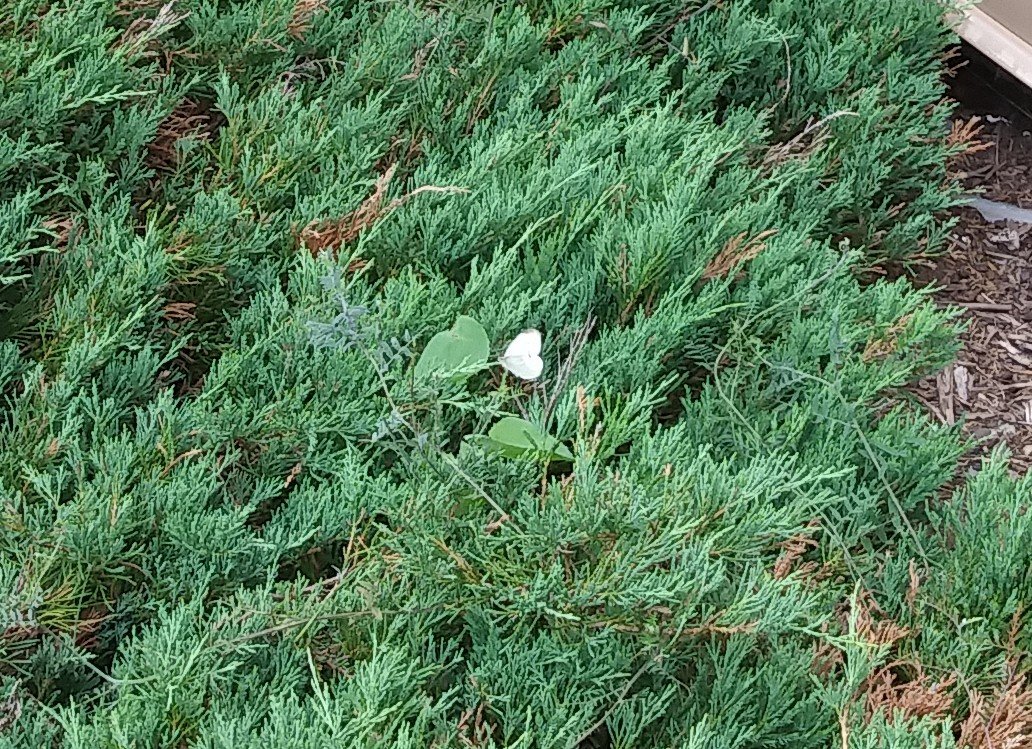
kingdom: Animalia
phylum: Arthropoda
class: Insecta
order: Lepidoptera
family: Pieridae
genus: Pieris
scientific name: Pieris rapae
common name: Cabbage White
